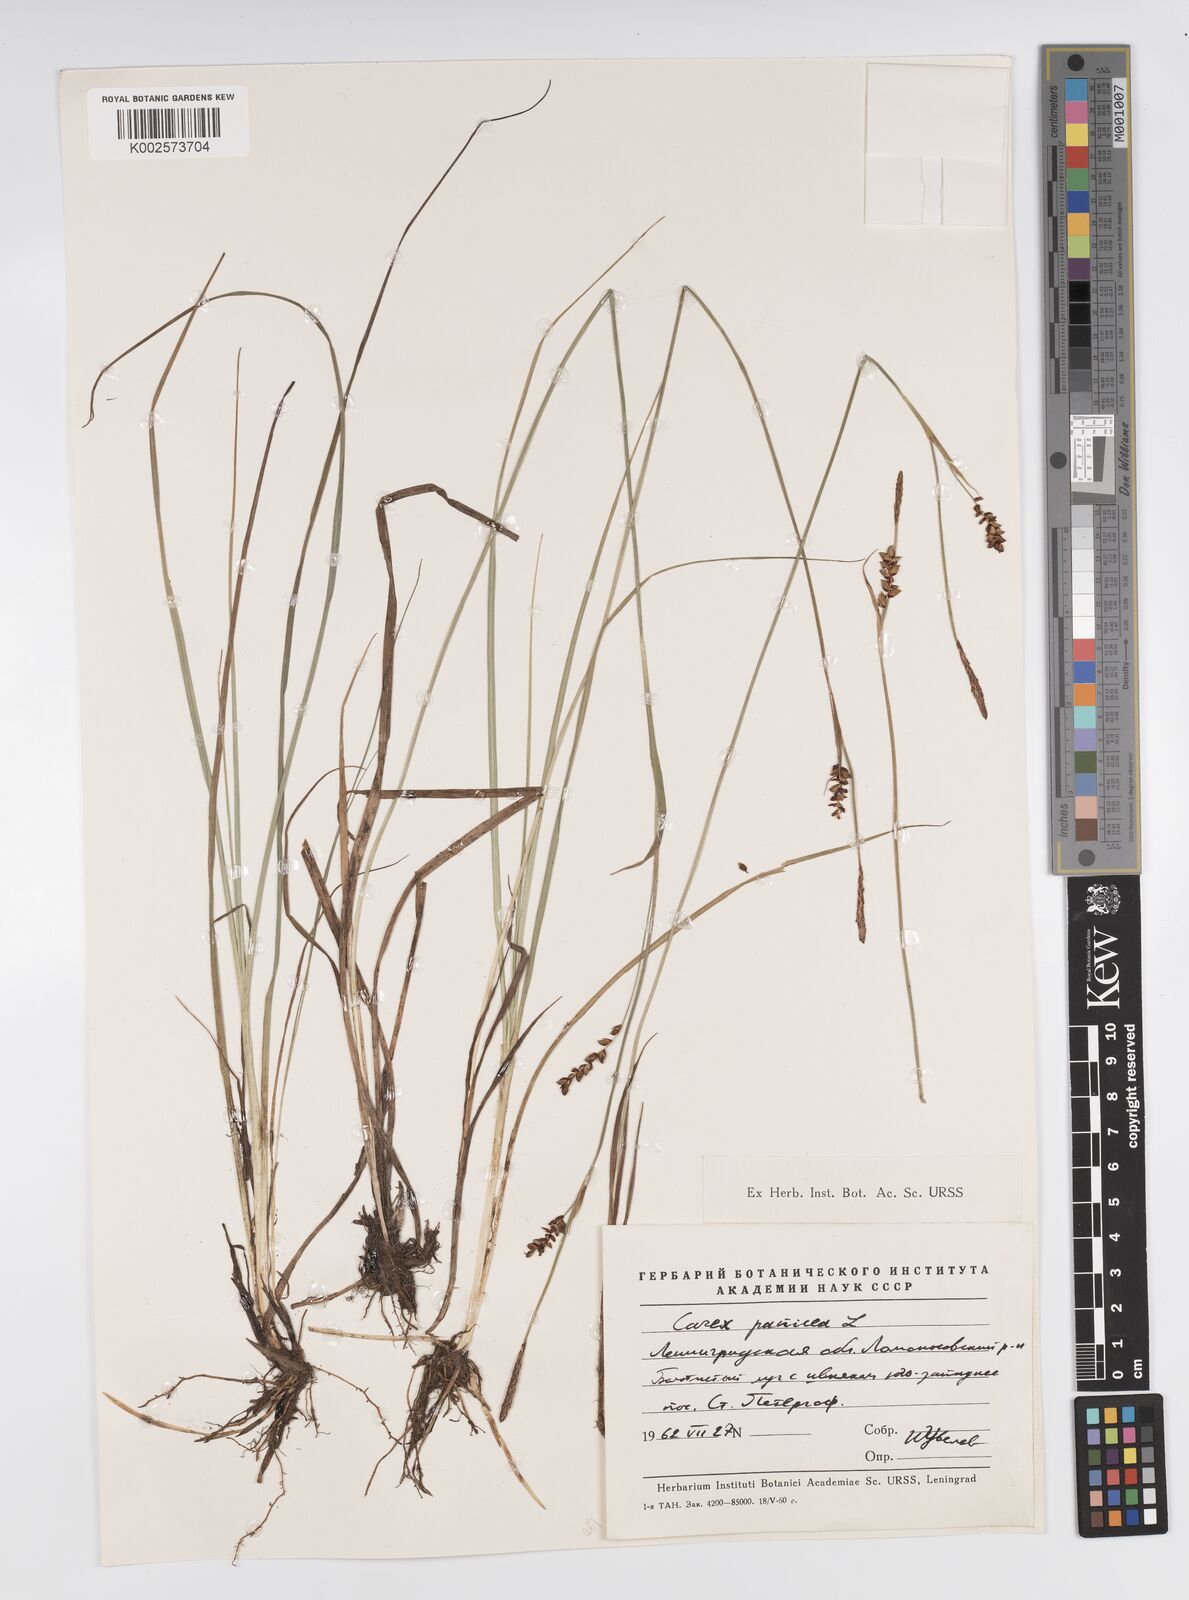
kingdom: Plantae
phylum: Tracheophyta
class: Liliopsida
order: Poales
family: Cyperaceae
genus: Carex
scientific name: Carex panicea
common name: Carnation sedge
